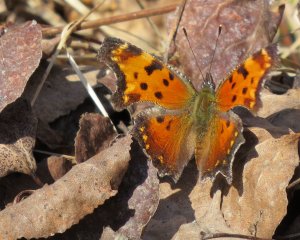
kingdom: Animalia
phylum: Arthropoda
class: Insecta
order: Lepidoptera
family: Nymphalidae
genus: Polygonia
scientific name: Polygonia progne
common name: Gray Comma
